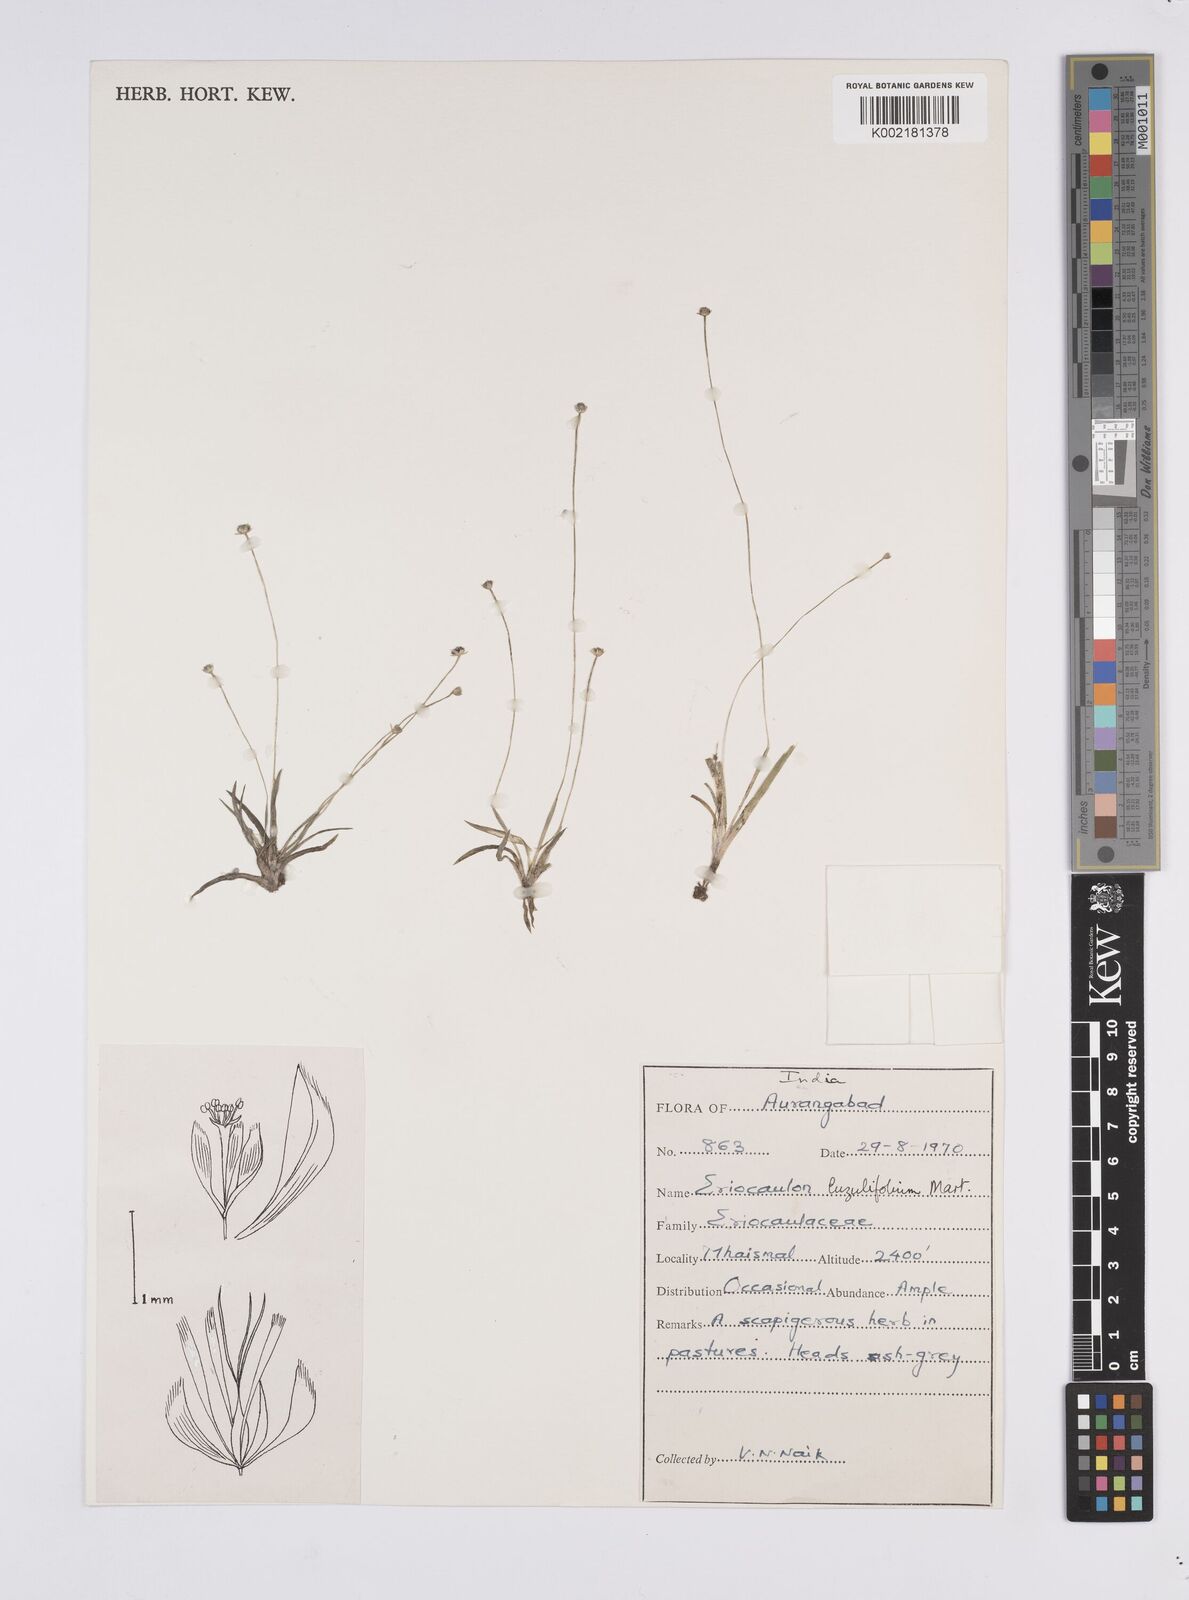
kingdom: Plantae
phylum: Tracheophyta
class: Liliopsida
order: Poales
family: Eriocaulaceae
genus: Eriocaulon
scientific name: Eriocaulon nepalense
